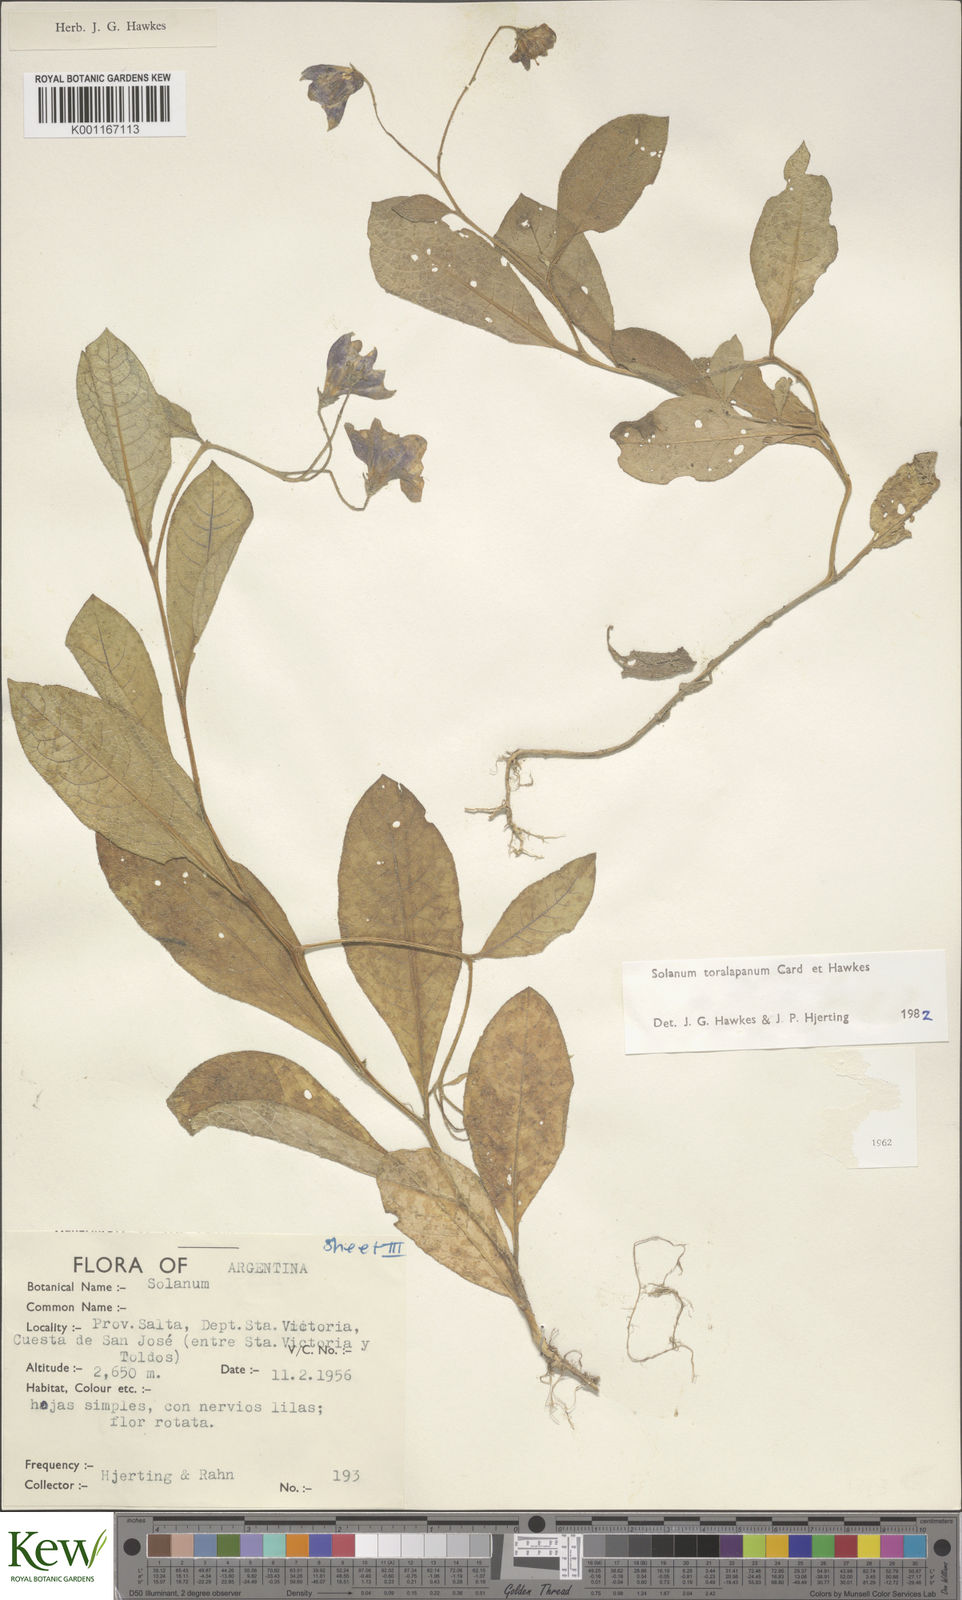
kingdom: Plantae
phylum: Tracheophyta
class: Magnoliopsida
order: Solanales
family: Solanaceae
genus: Solanum
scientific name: Solanum
